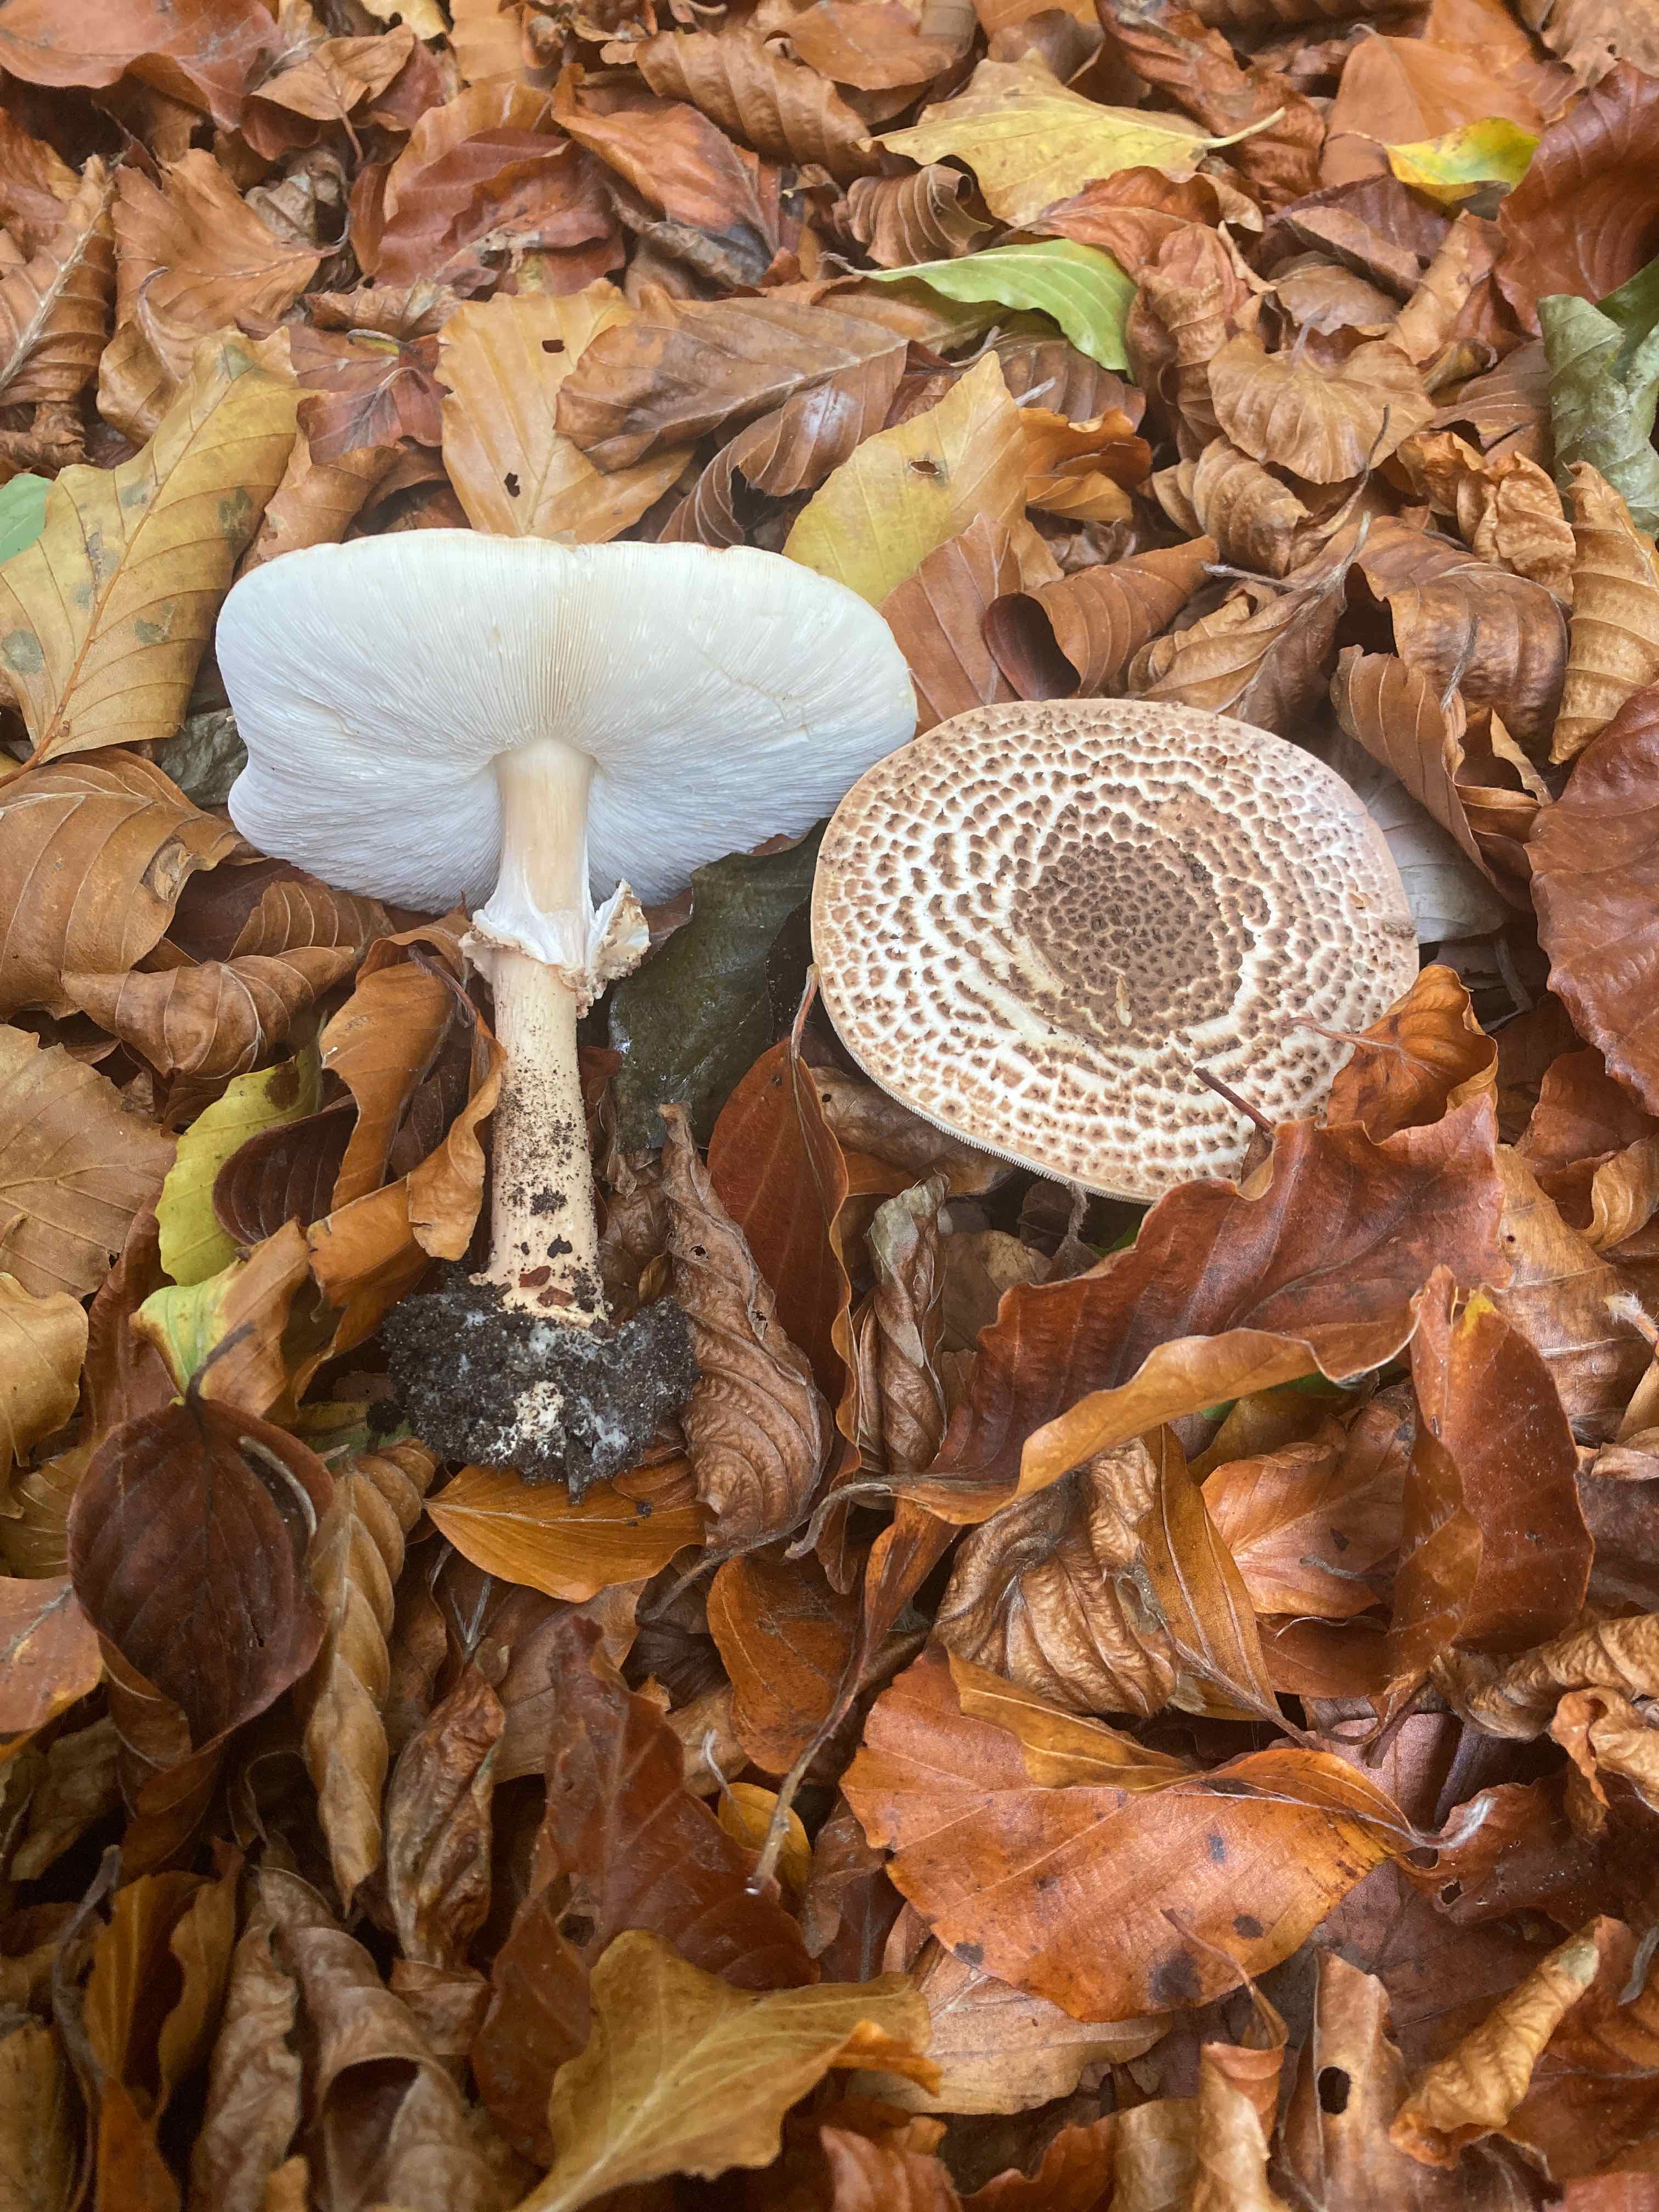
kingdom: Fungi
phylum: Basidiomycota
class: Agaricomycetes
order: Agaricales
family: Agaricaceae
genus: Echinoderma
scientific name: Echinoderma asperum
